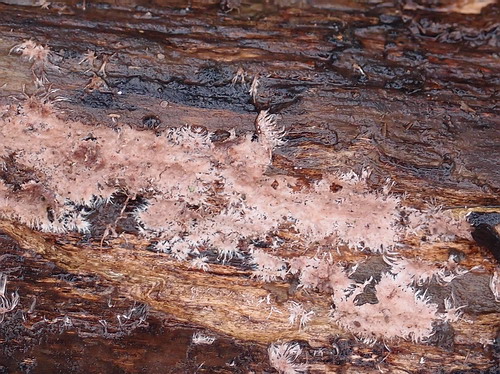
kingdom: Fungi
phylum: Basidiomycota
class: Agaricomycetes
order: Polyporales
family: Steccherinaceae
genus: Steccherinum
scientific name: Steccherinum fimbriatum
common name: trådet skønpig
